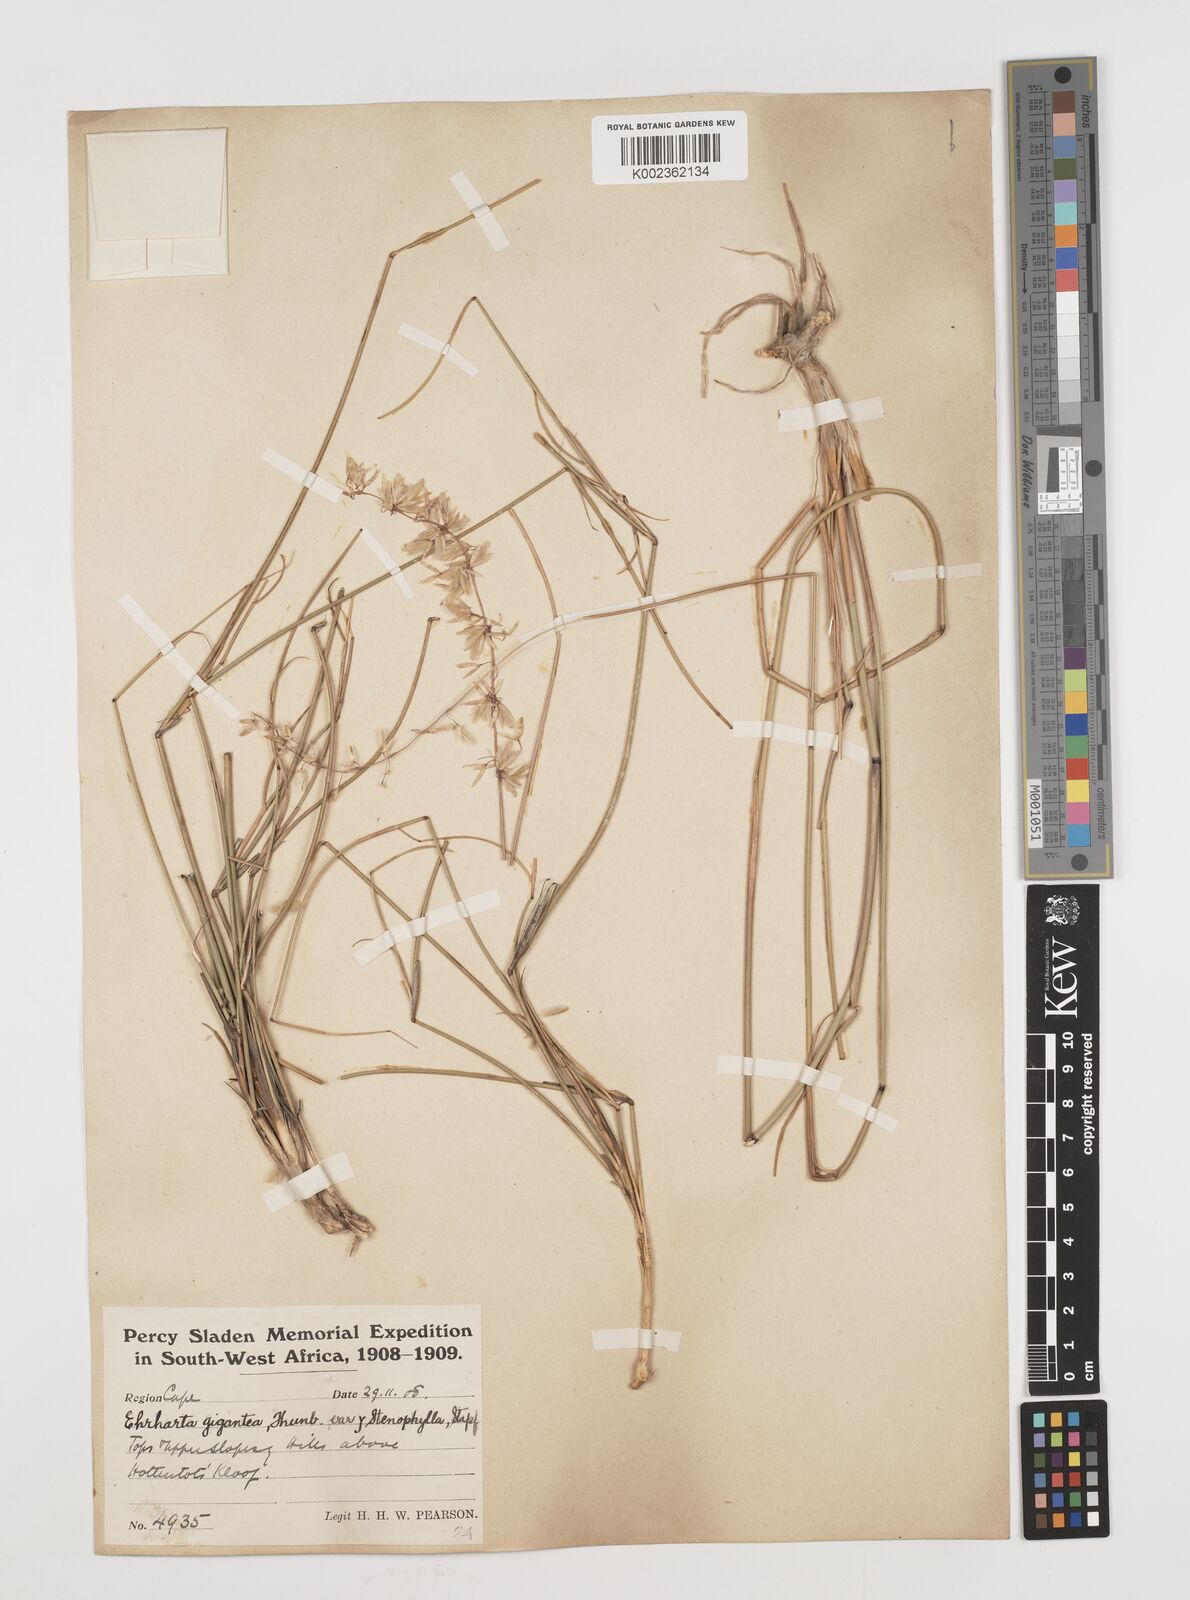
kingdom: Plantae
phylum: Tracheophyta
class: Liliopsida
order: Poales
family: Poaceae
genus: Ehrharta
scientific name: Ehrharta thunbergii
